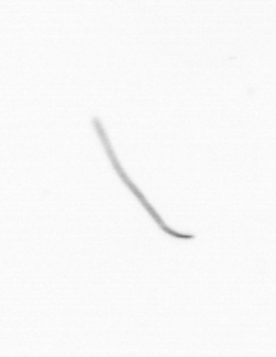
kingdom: Chromista
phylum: Ochrophyta
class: Bacillariophyceae
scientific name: Bacillariophyceae
